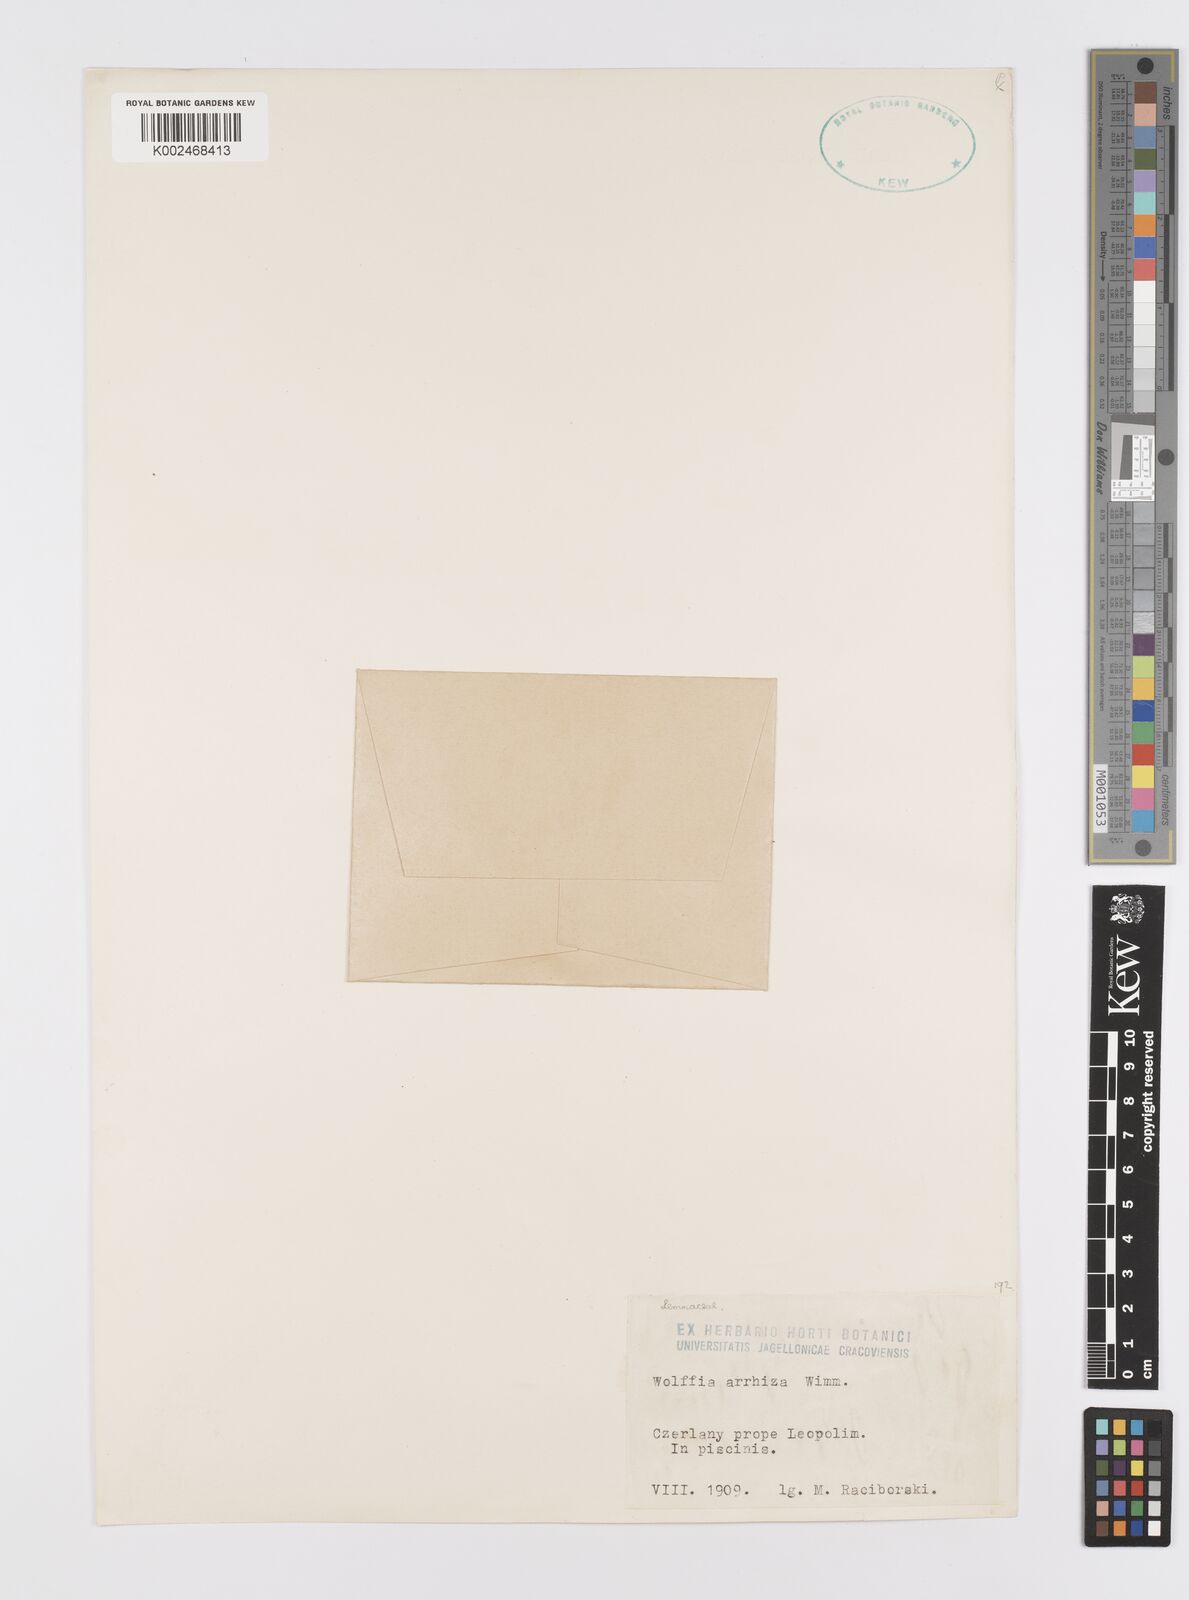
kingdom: Plantae
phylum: Tracheophyta
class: Liliopsida
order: Alismatales
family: Araceae
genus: Wolffia
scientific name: Wolffia arrhiza
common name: Rootless duckweed
